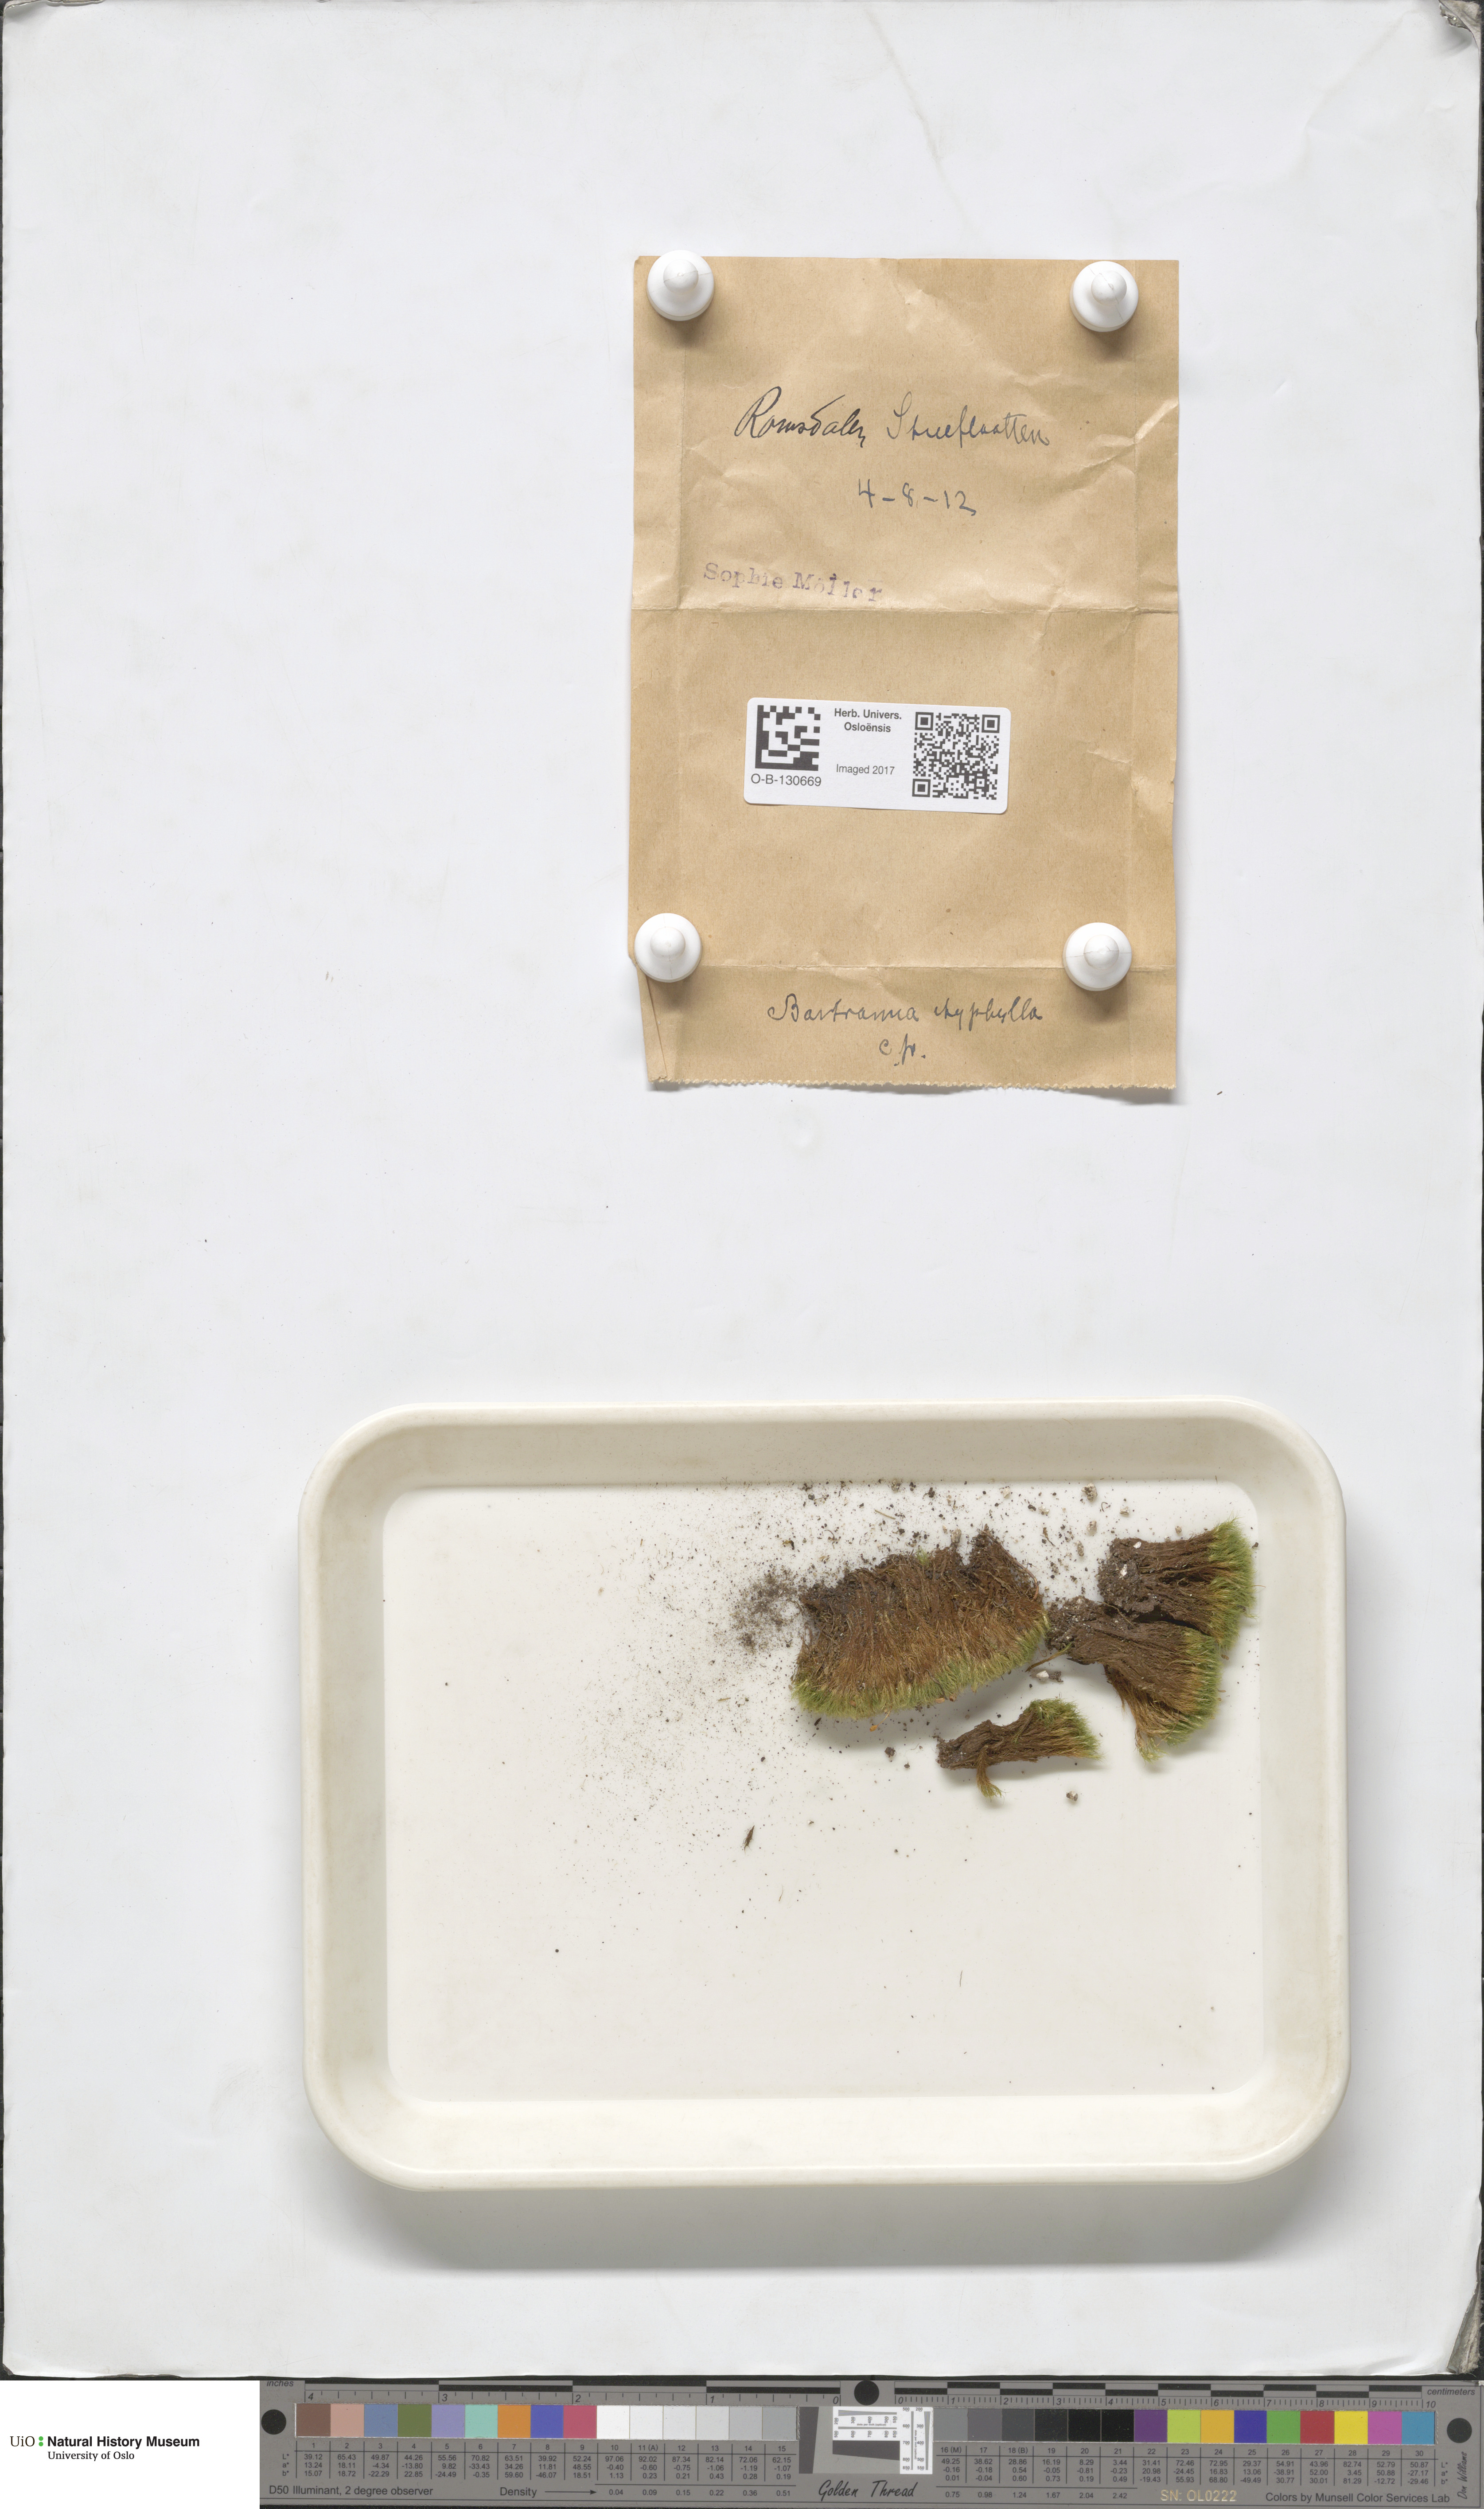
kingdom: Plantae
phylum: Bryophyta
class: Bryopsida
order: Bartramiales
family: Bartramiaceae
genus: Bartramia
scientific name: Bartramia ithyphylla
